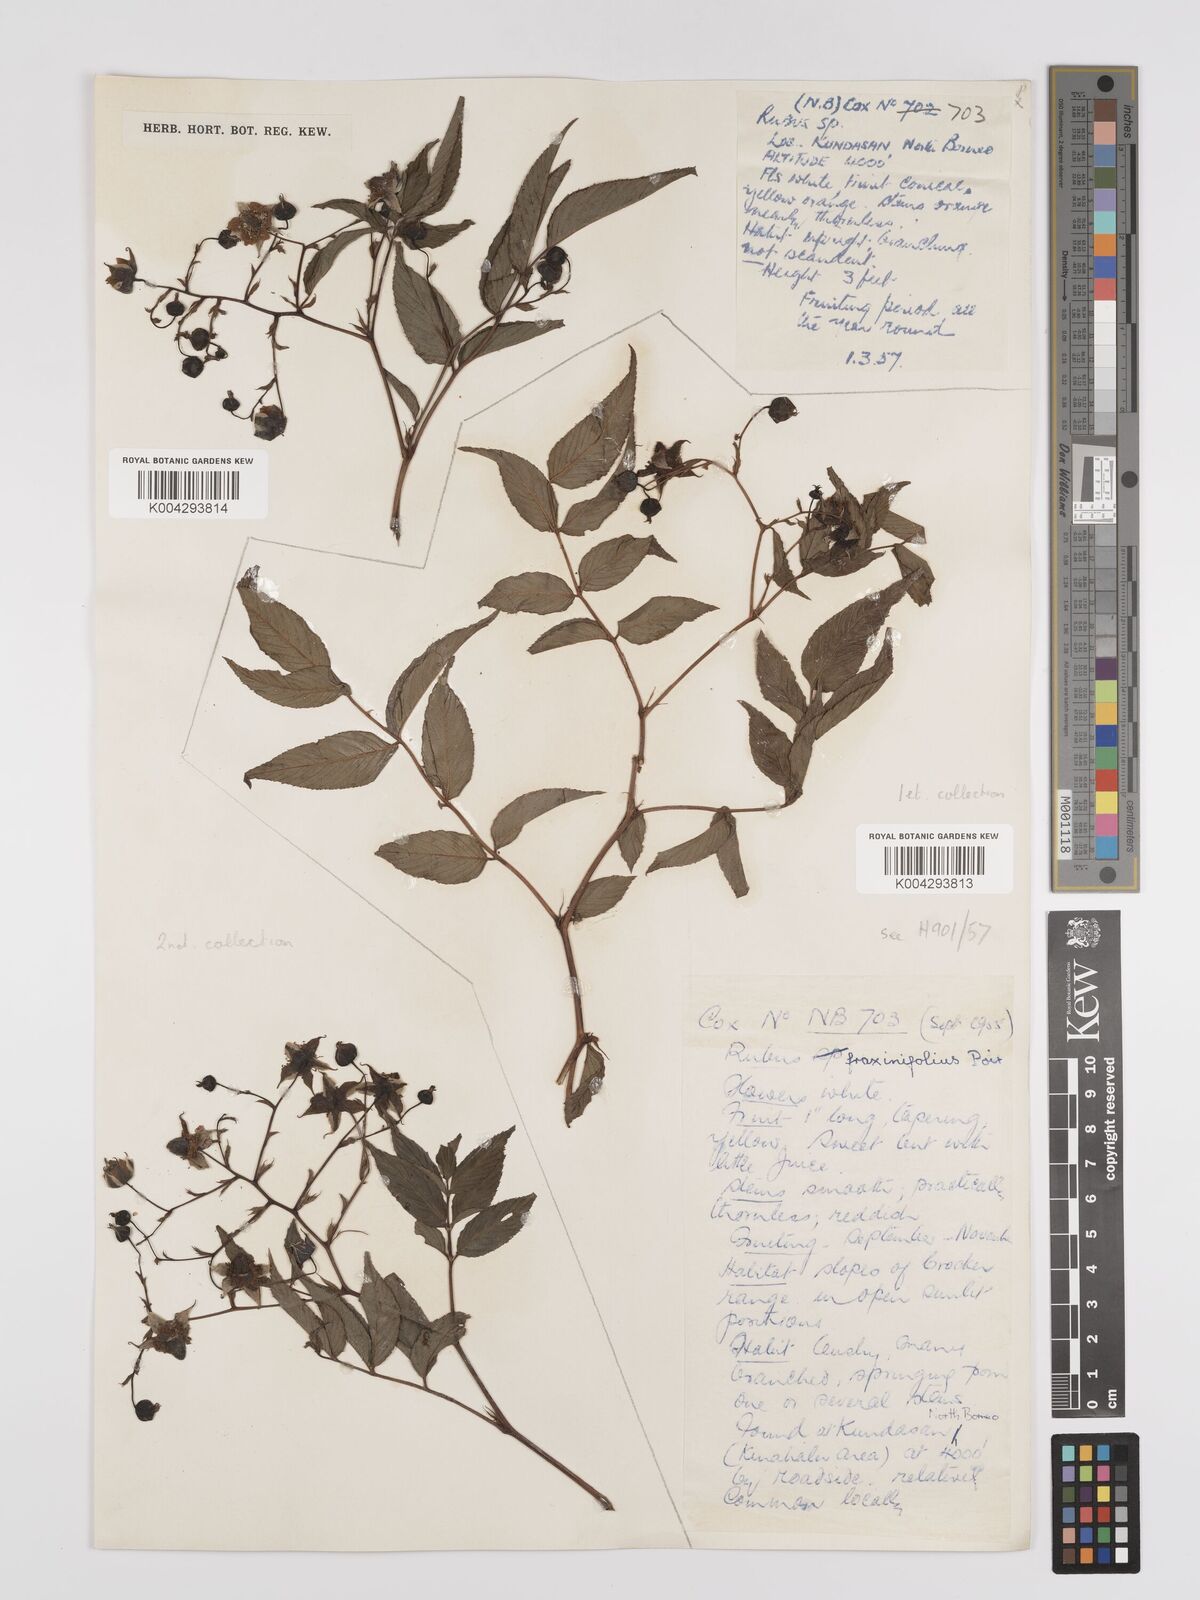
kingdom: Plantae
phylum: Tracheophyta
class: Magnoliopsida
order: Rosales
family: Rosaceae
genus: Rubus
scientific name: Rubus fraxinifolius
